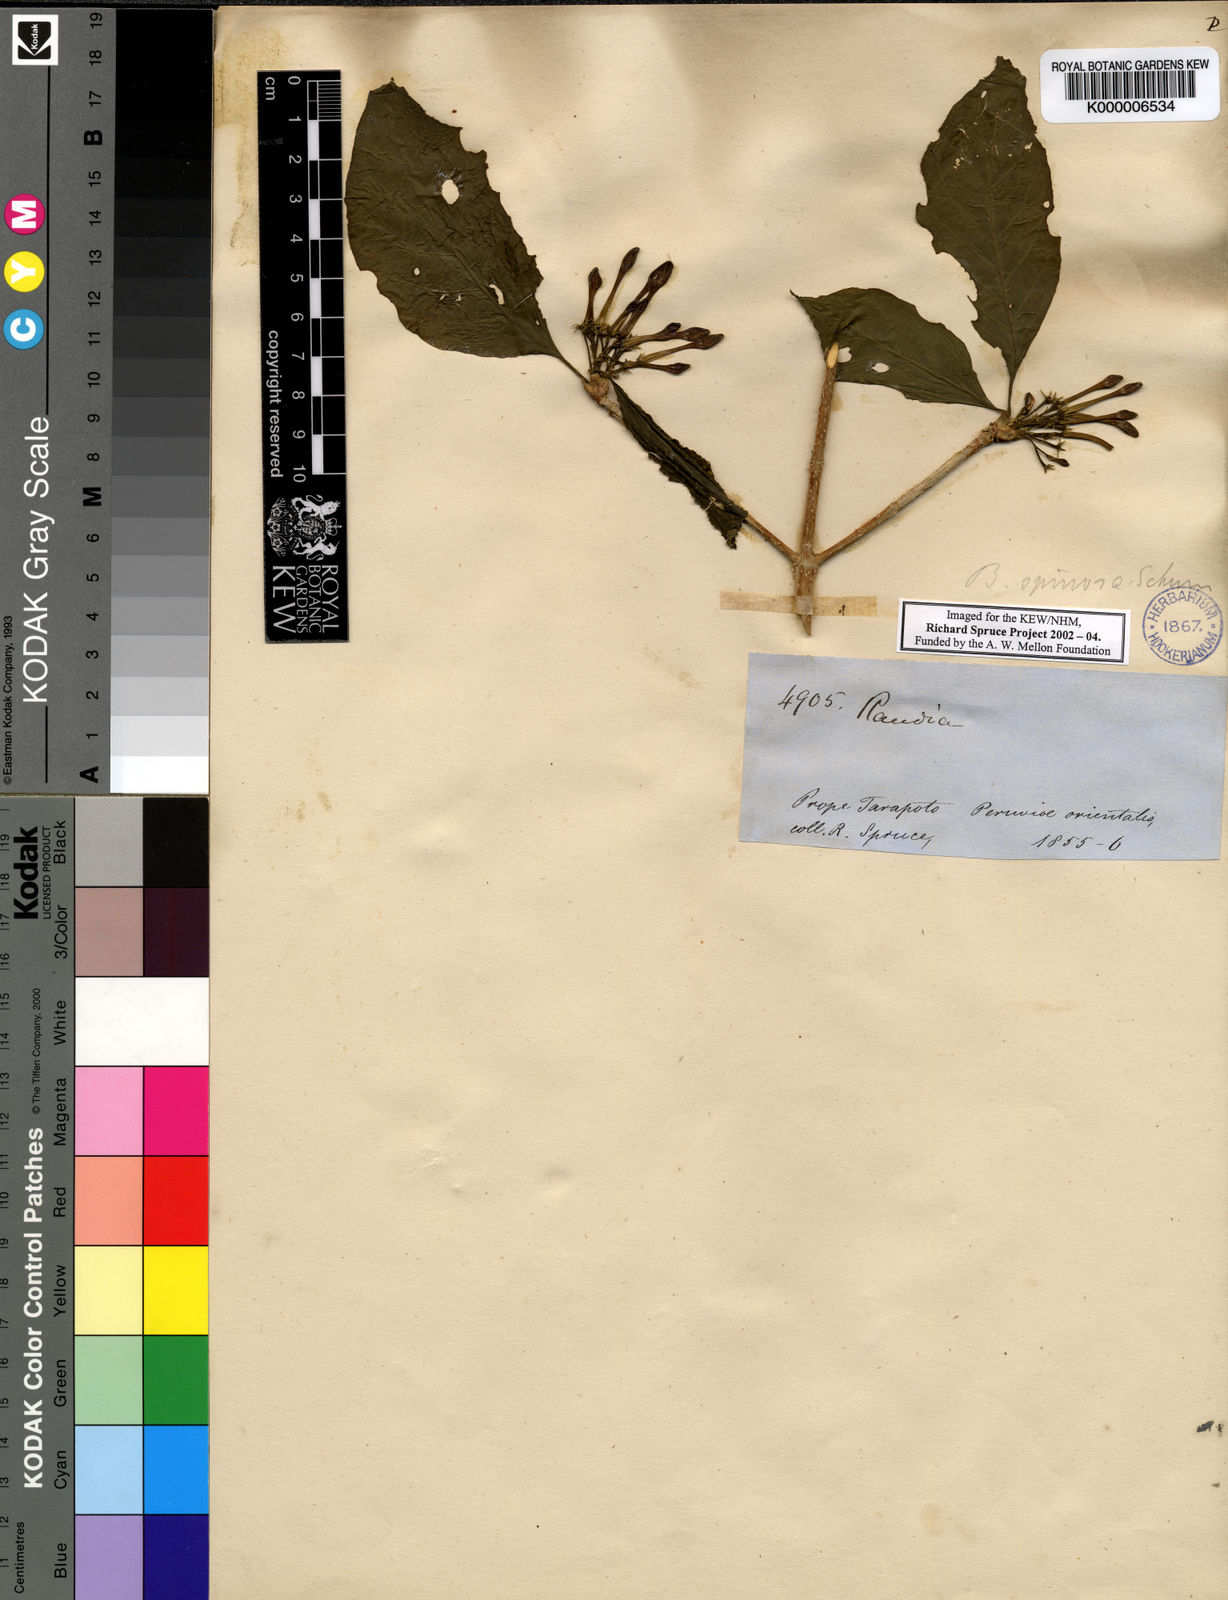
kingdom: Plantae
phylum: Tracheophyta
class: Magnoliopsida
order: Gentianales
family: Rubiaceae
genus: Randia
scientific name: Randia armata
